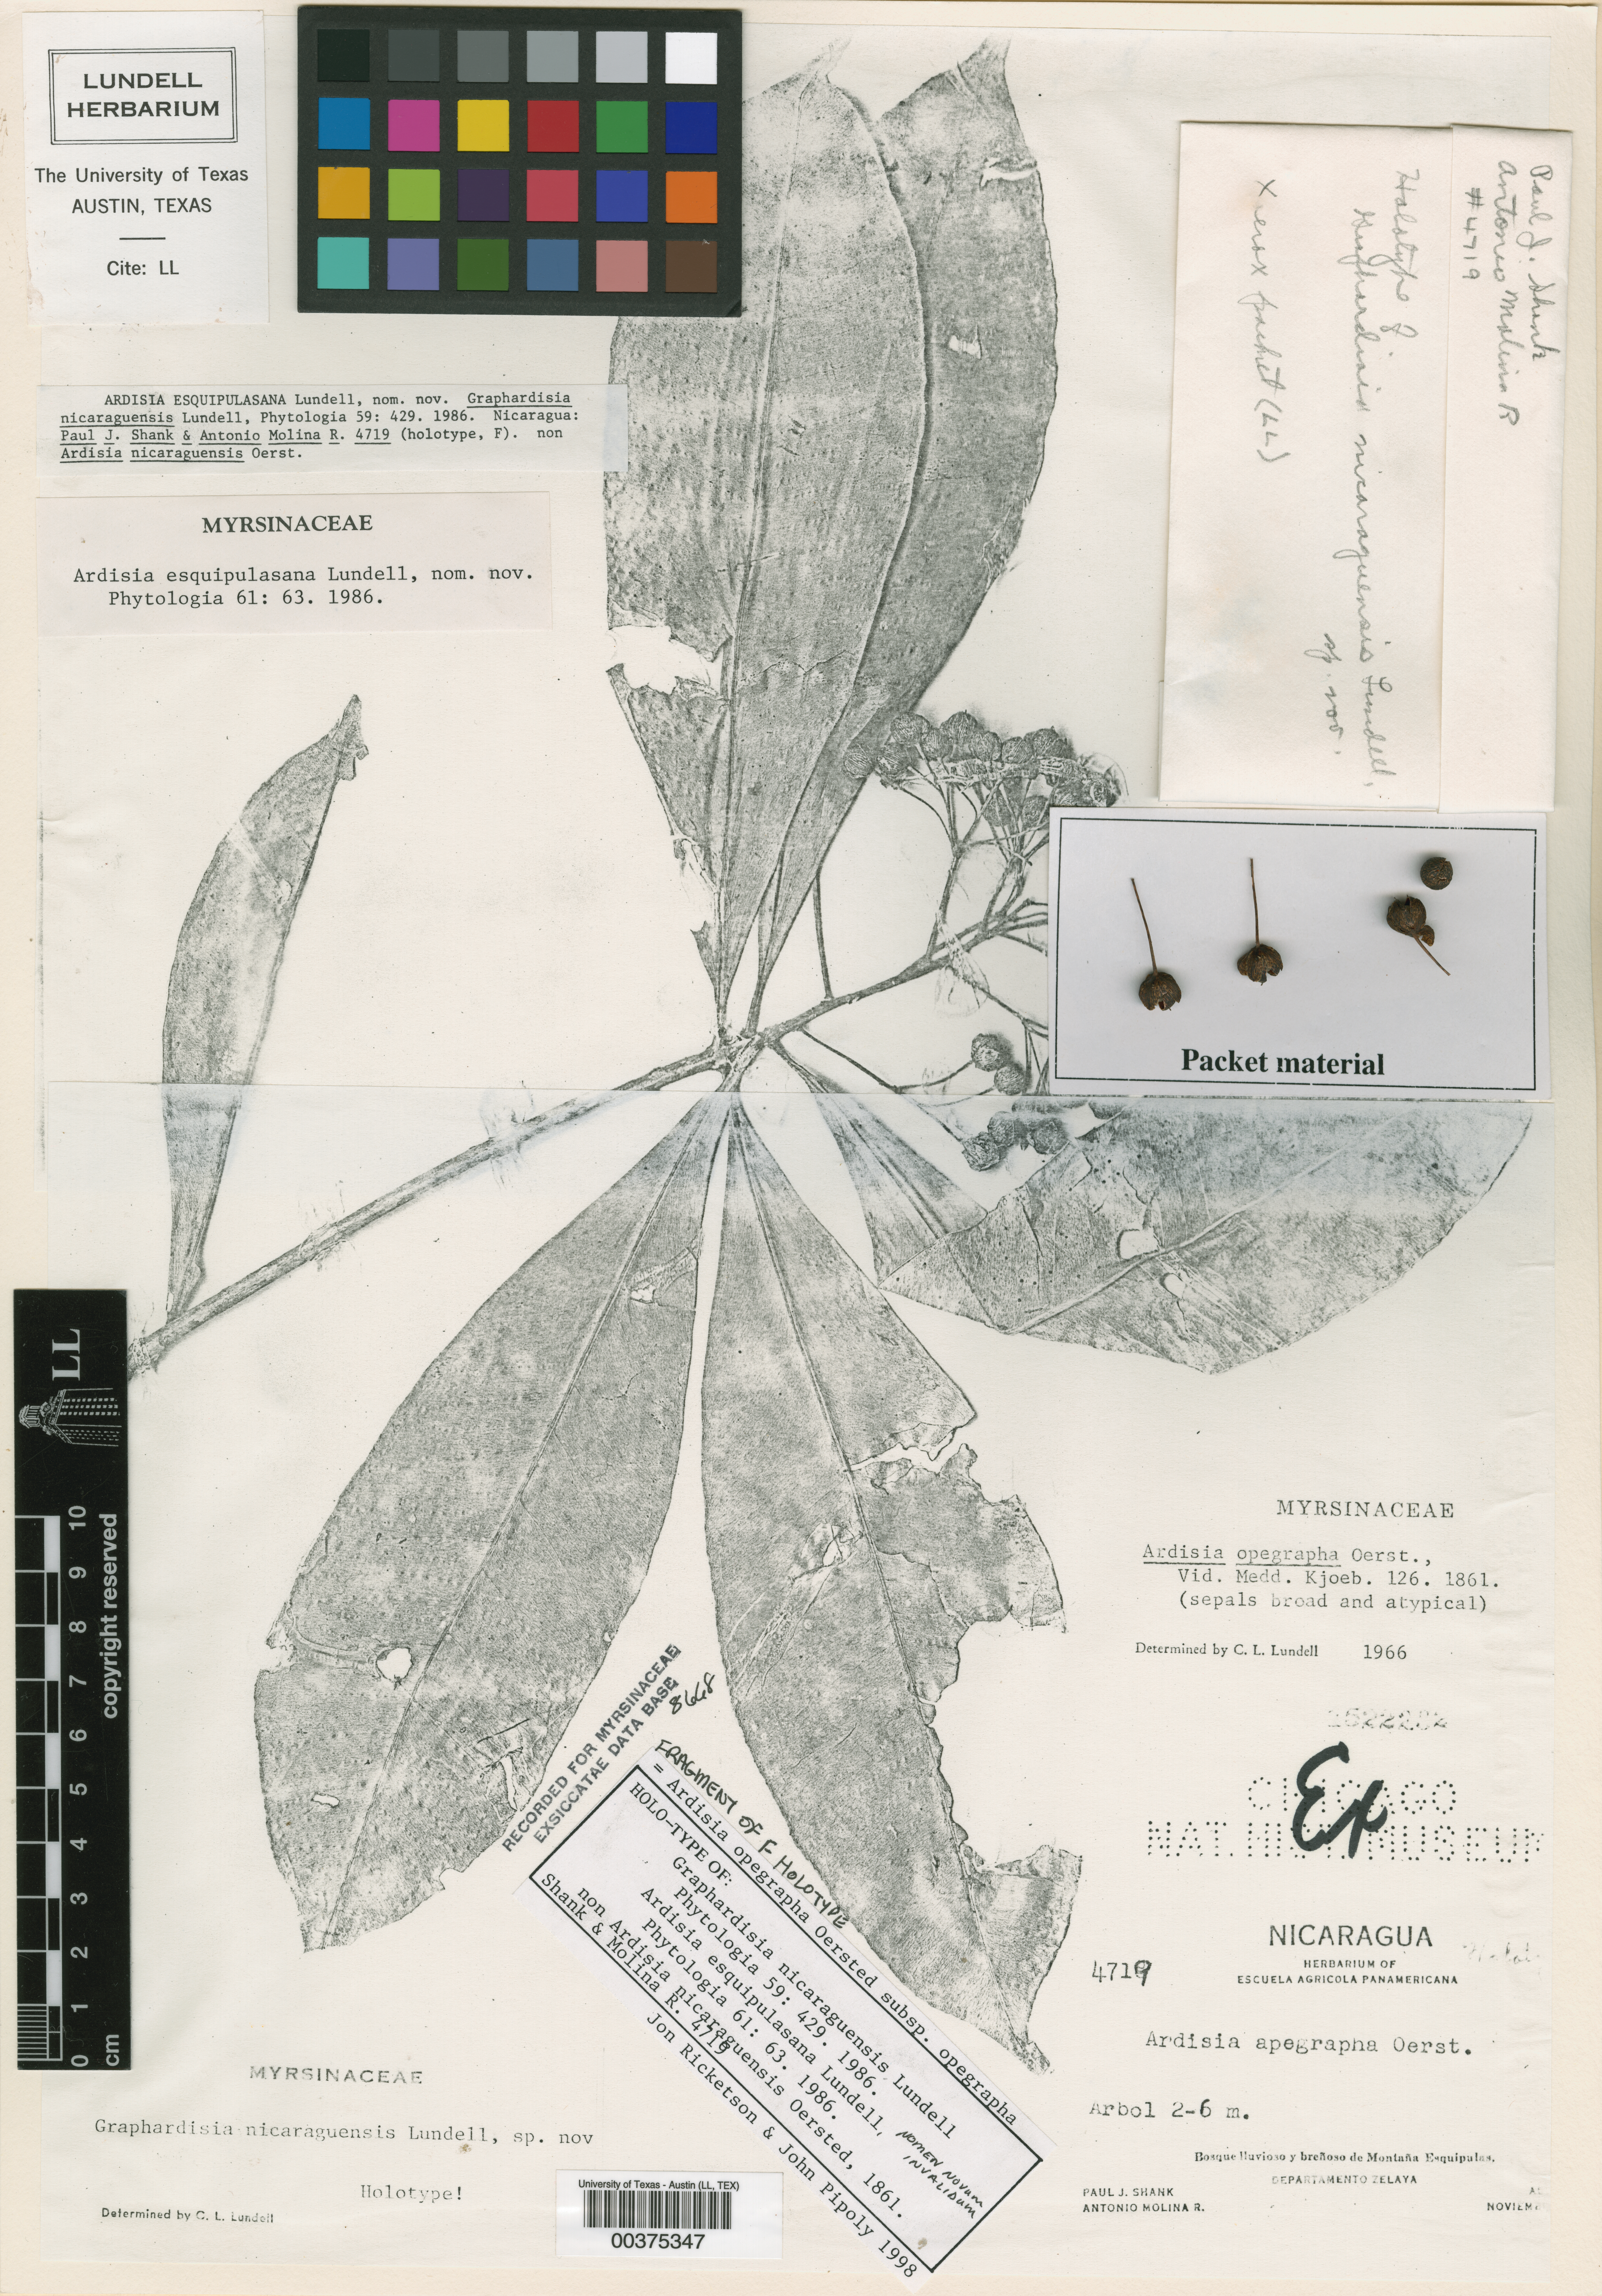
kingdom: Plantae
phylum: Tracheophyta
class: Magnoliopsida
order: Ericales
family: Primulaceae
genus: Ardisia
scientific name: Ardisia opegrapha
